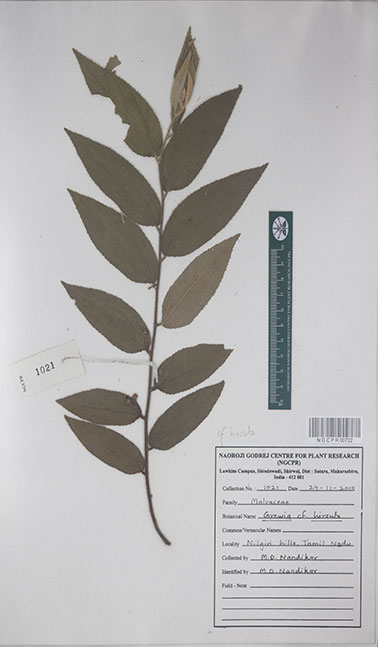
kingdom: Plantae
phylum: Tracheophyta
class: Magnoliopsida
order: Malvales
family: Malvaceae
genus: Grewia
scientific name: Grewia hirsuta
